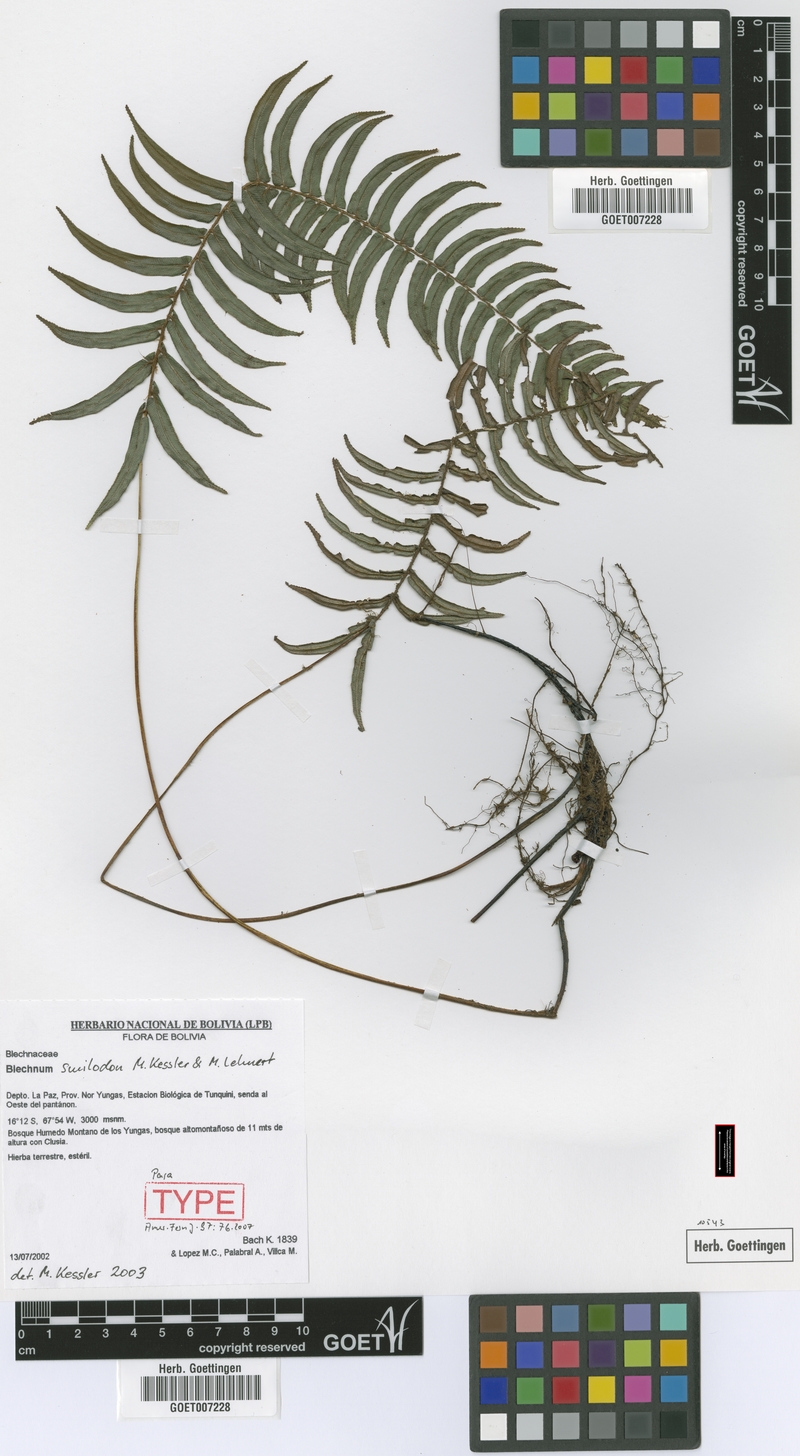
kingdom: Plantae
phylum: Tracheophyta
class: Polypodiopsida
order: Polypodiales
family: Blechnaceae
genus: Parablechnum
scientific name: Parablechnum smilodon
